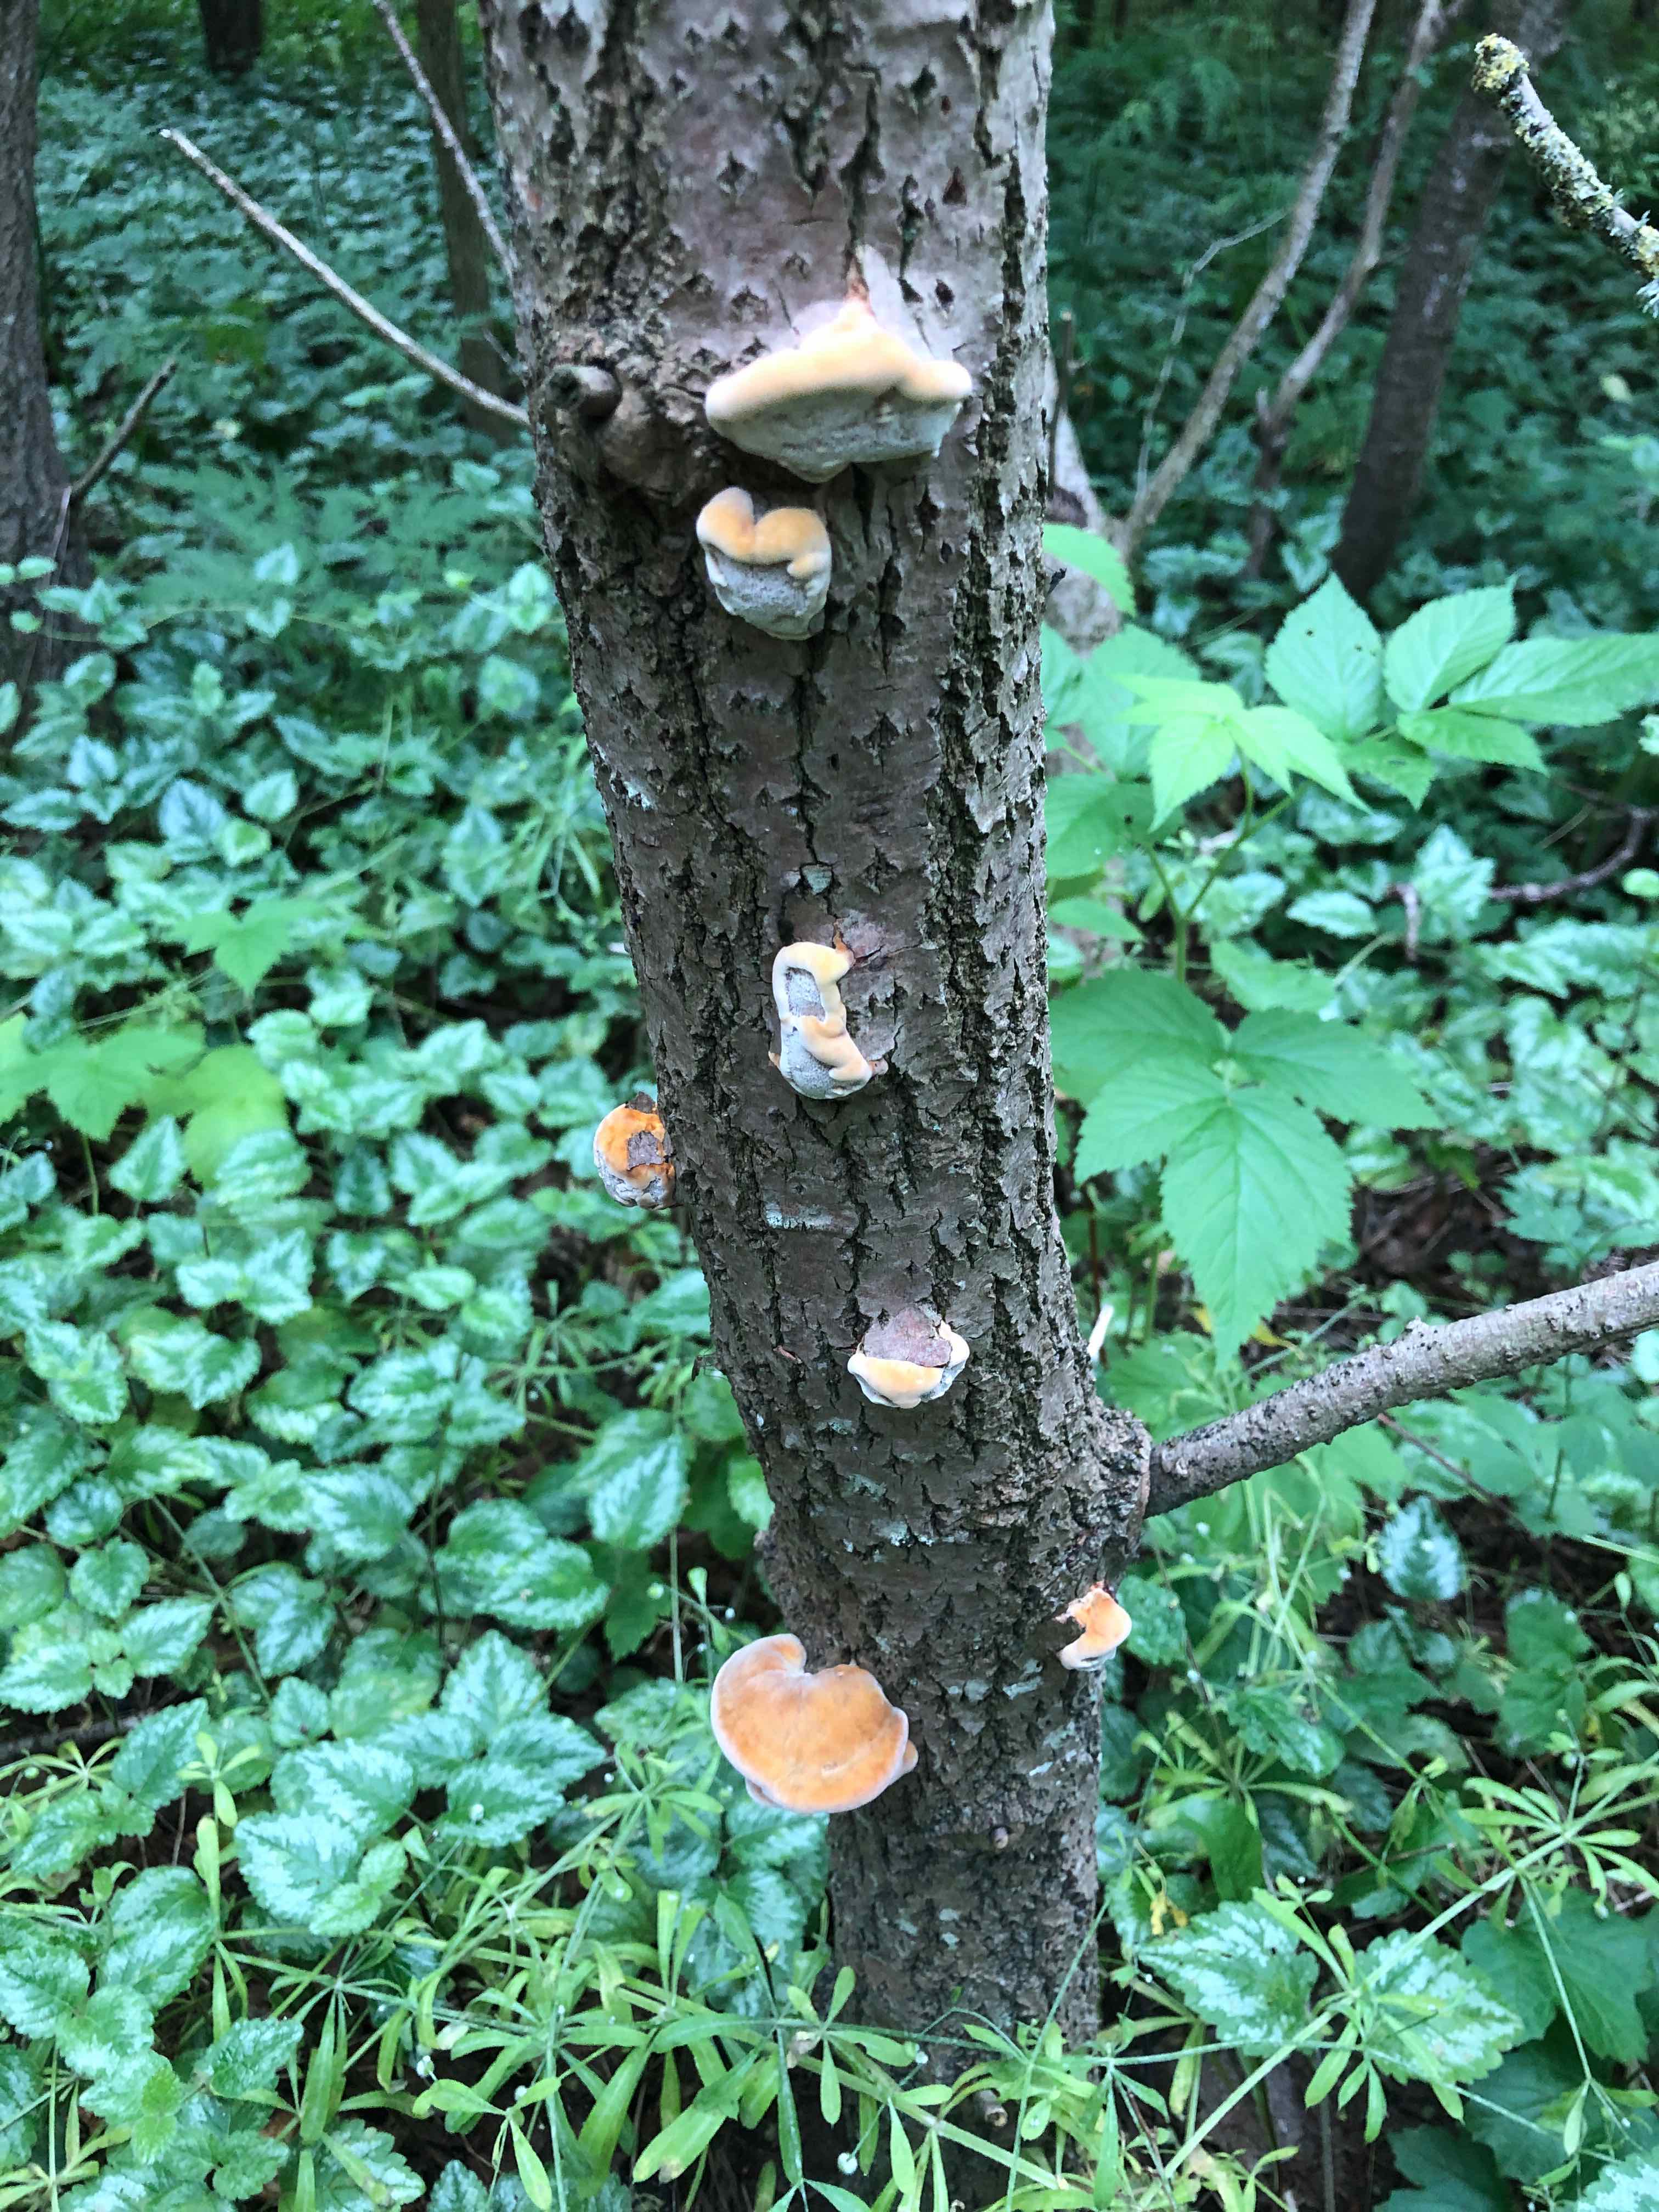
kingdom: Fungi
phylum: Basidiomycota
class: Agaricomycetes
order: Hymenochaetales
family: Hymenochaetaceae
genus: Inocutis
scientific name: Inocutis rheades
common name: ræve-spejlporesvamp
